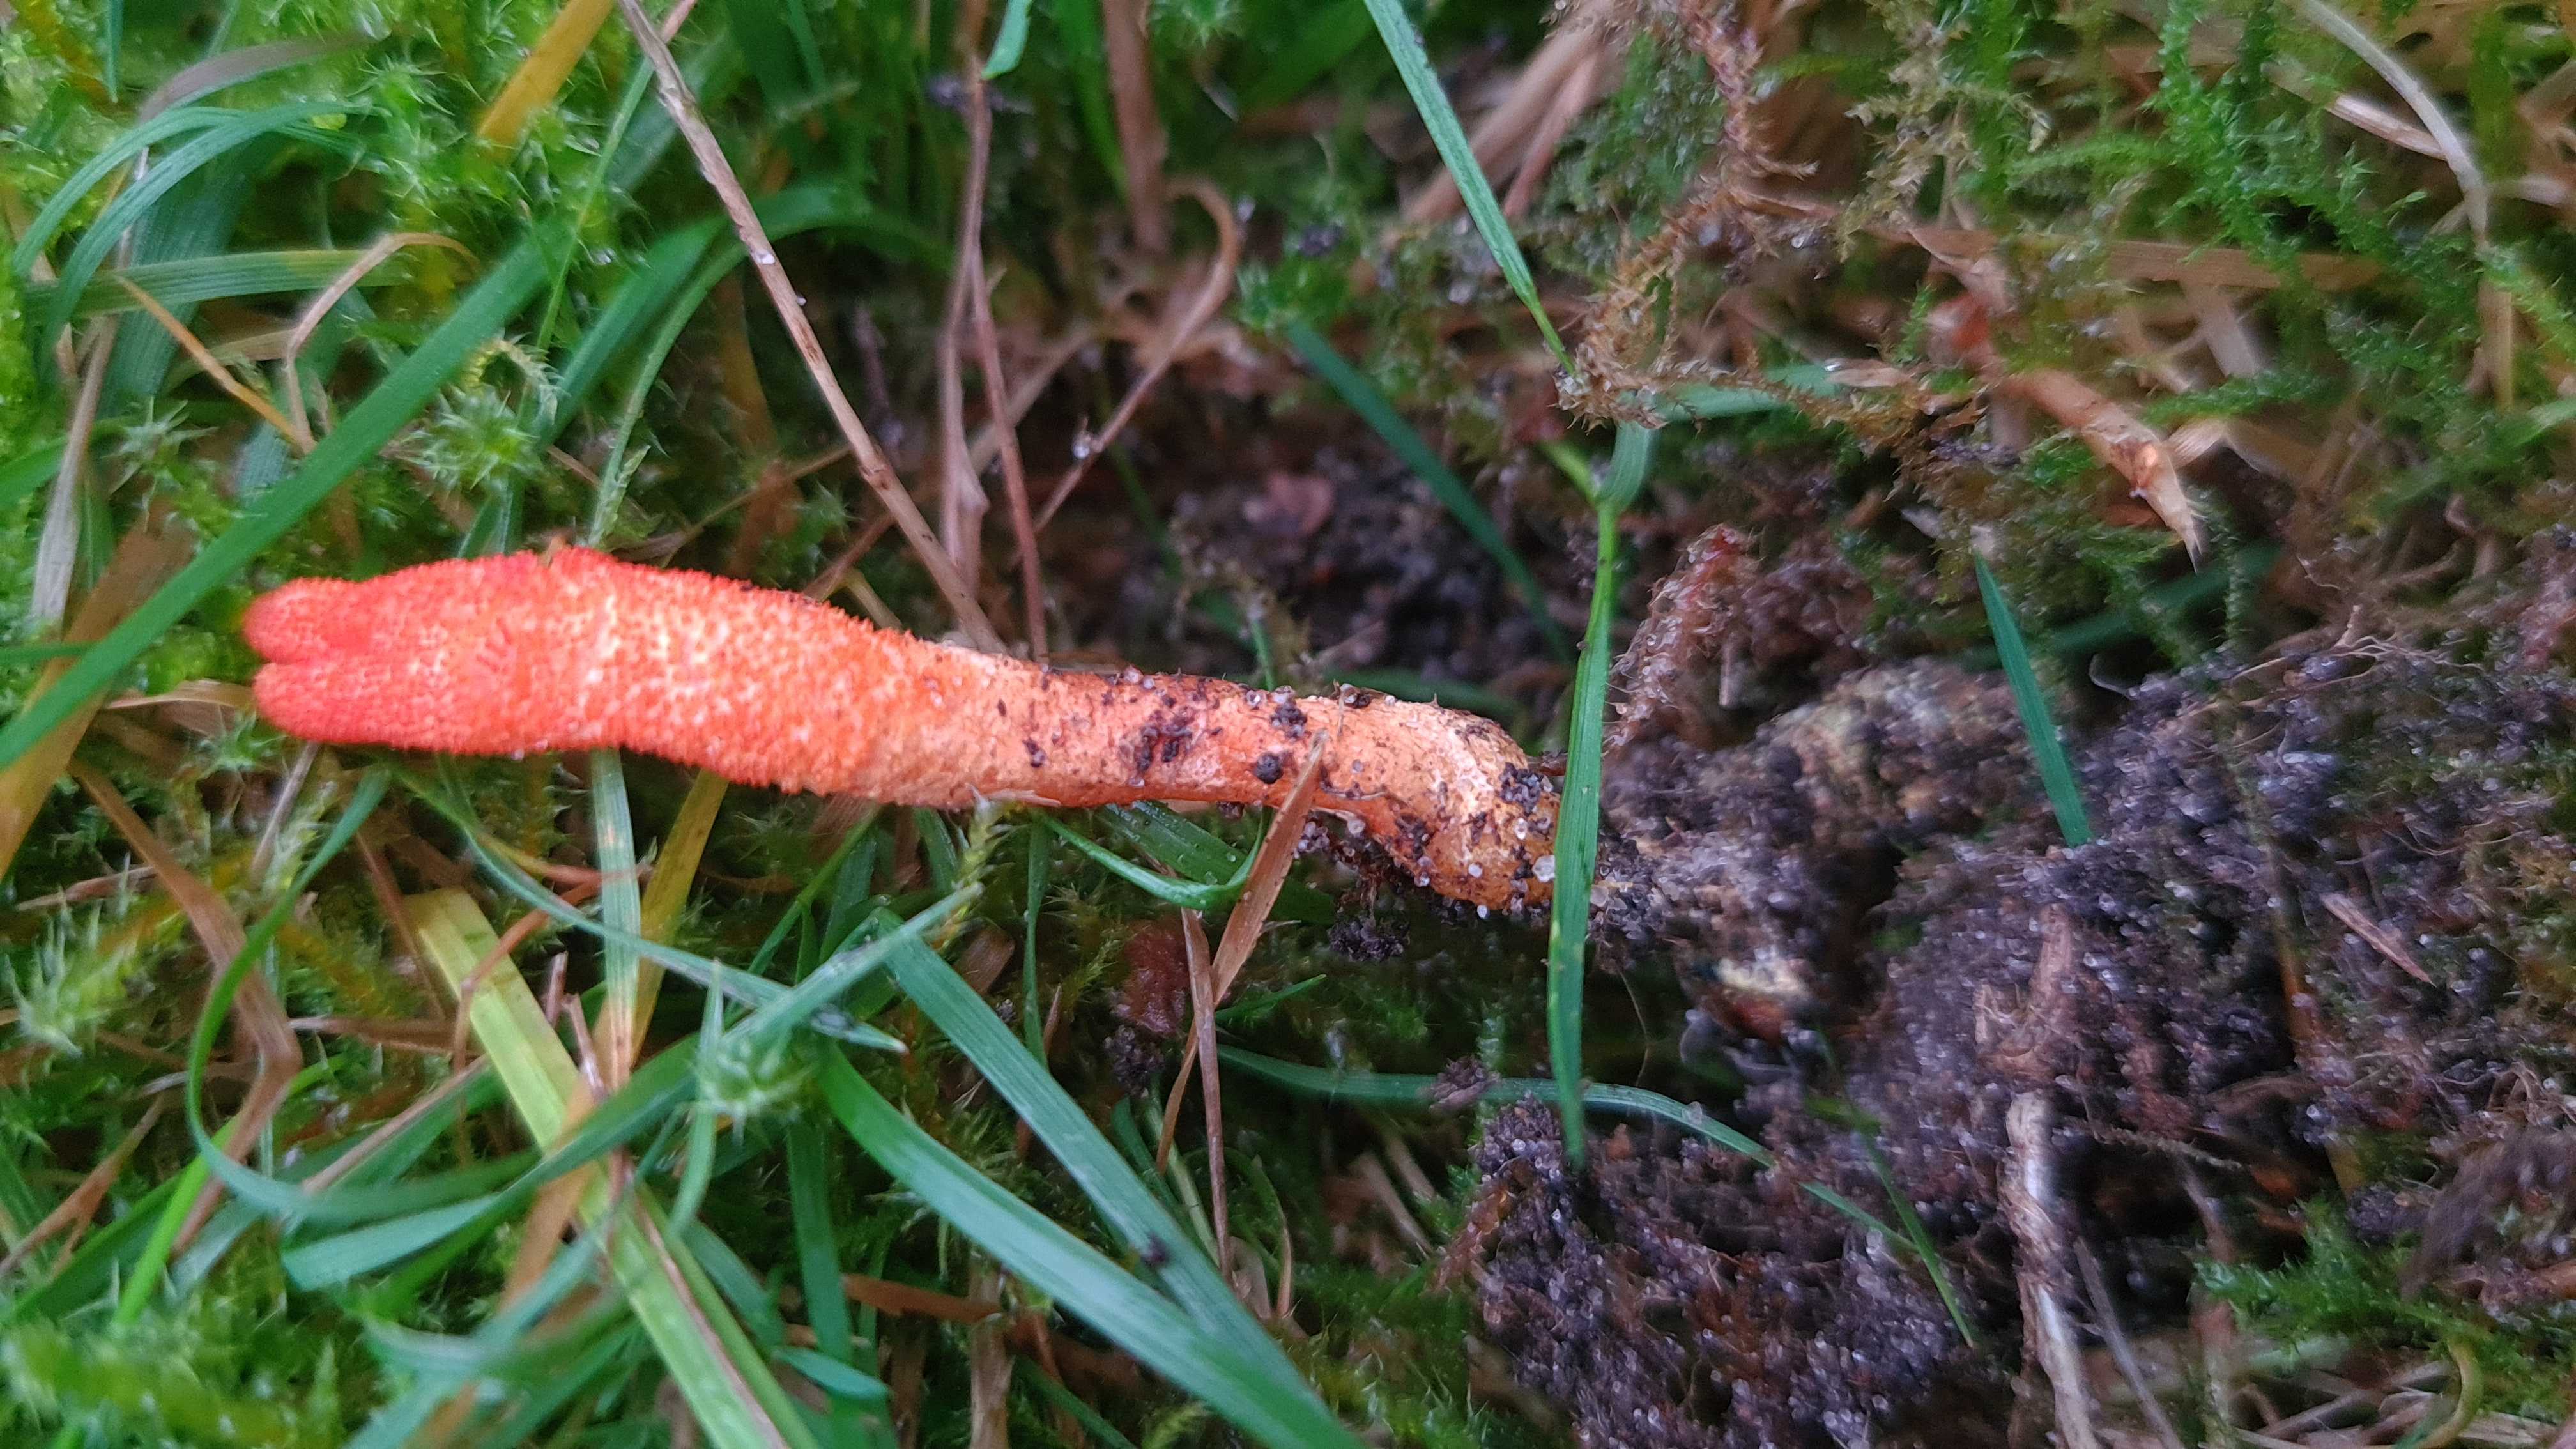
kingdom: Fungi
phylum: Ascomycota
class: Sordariomycetes
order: Hypocreales
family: Cordycipitaceae
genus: Cordyceps
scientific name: Cordyceps militaris
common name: puppe-snyltekølle
